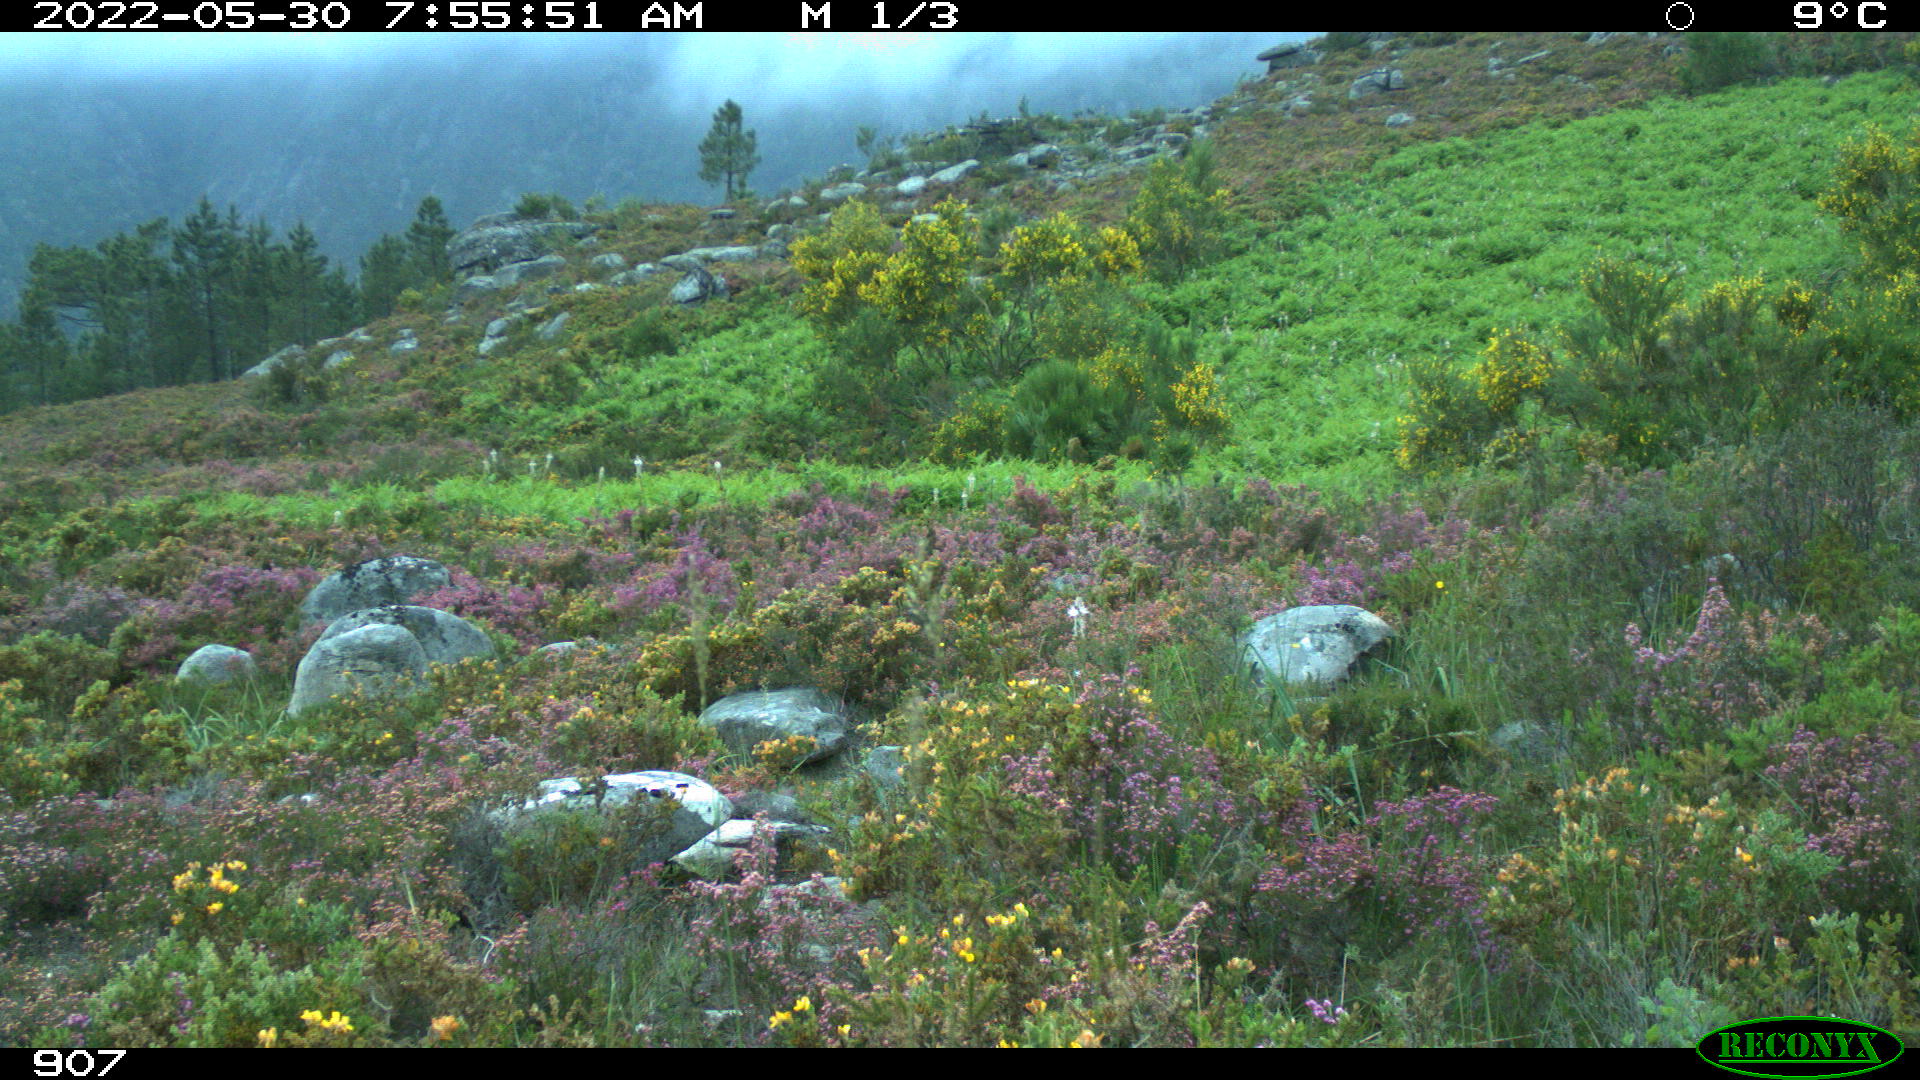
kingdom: Animalia
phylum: Chordata
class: Mammalia
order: Artiodactyla
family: Bovidae
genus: Bos
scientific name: Bos taurus
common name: Domesticated cattle
